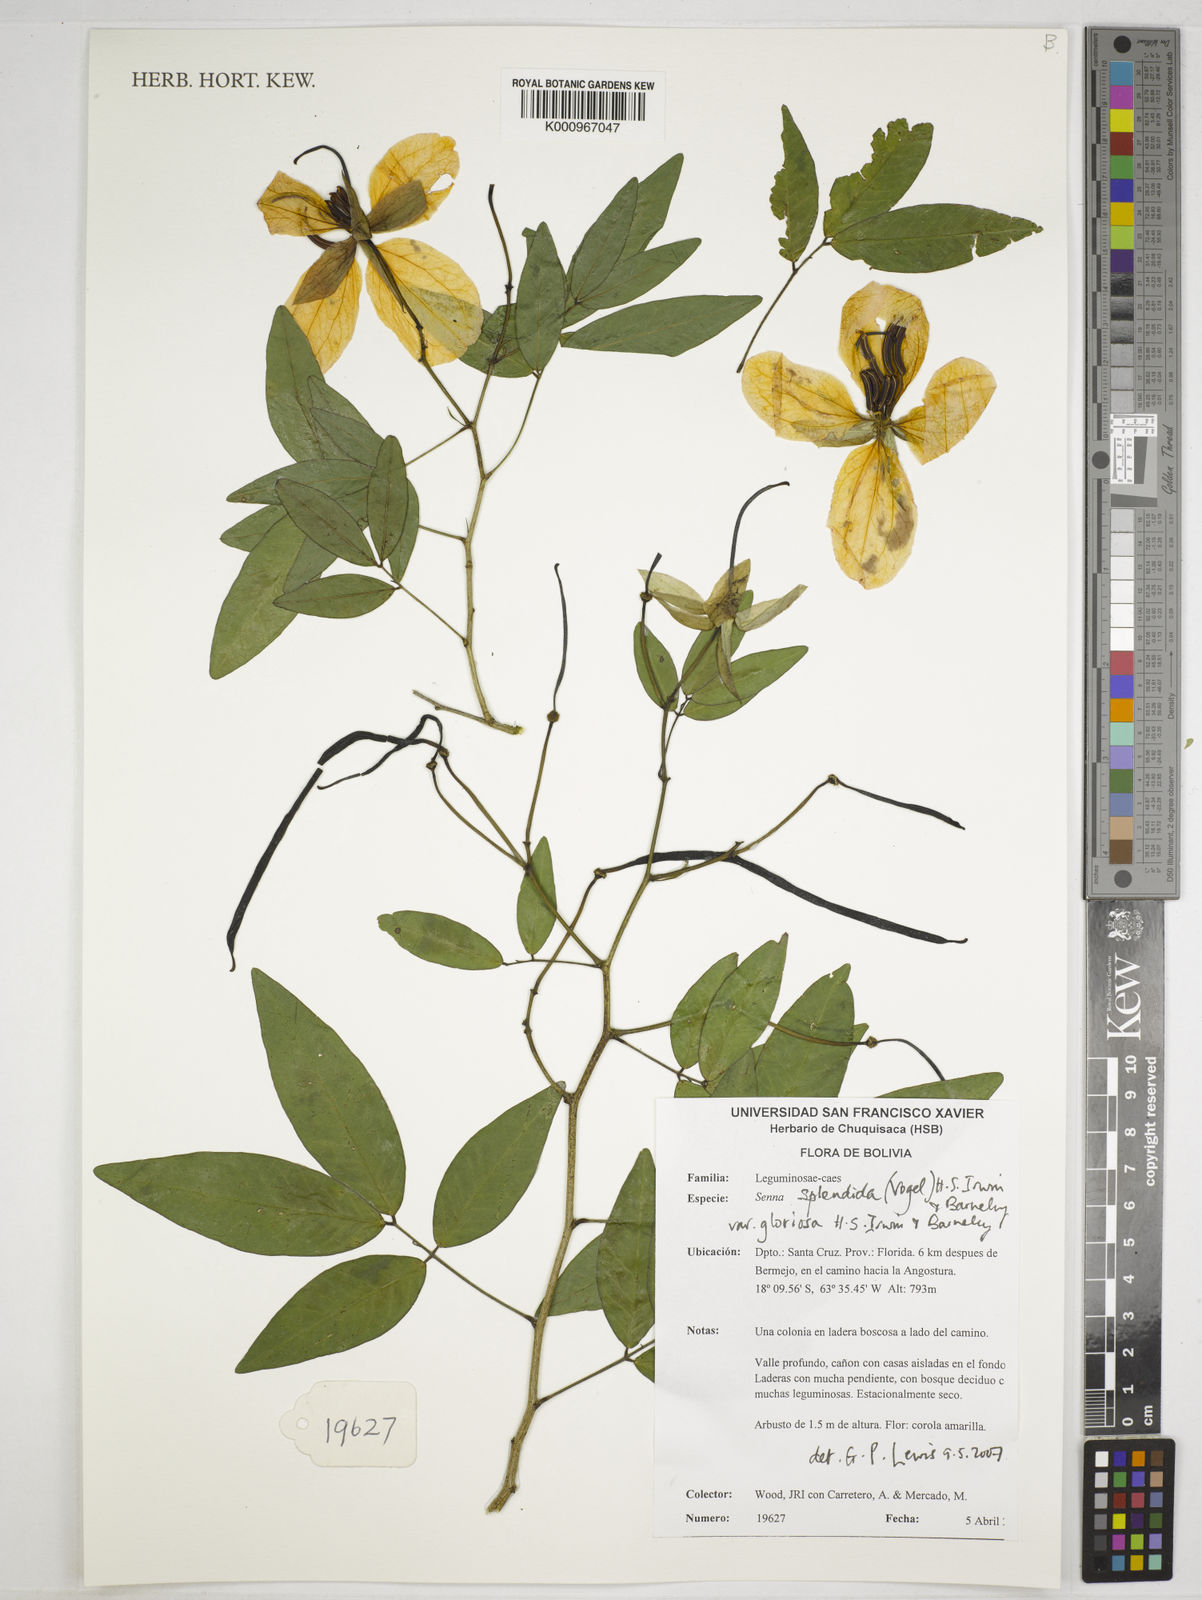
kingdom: Plantae
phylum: Tracheophyta
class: Magnoliopsida
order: Fabales
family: Fabaceae
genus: Senna
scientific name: Senna splendida
